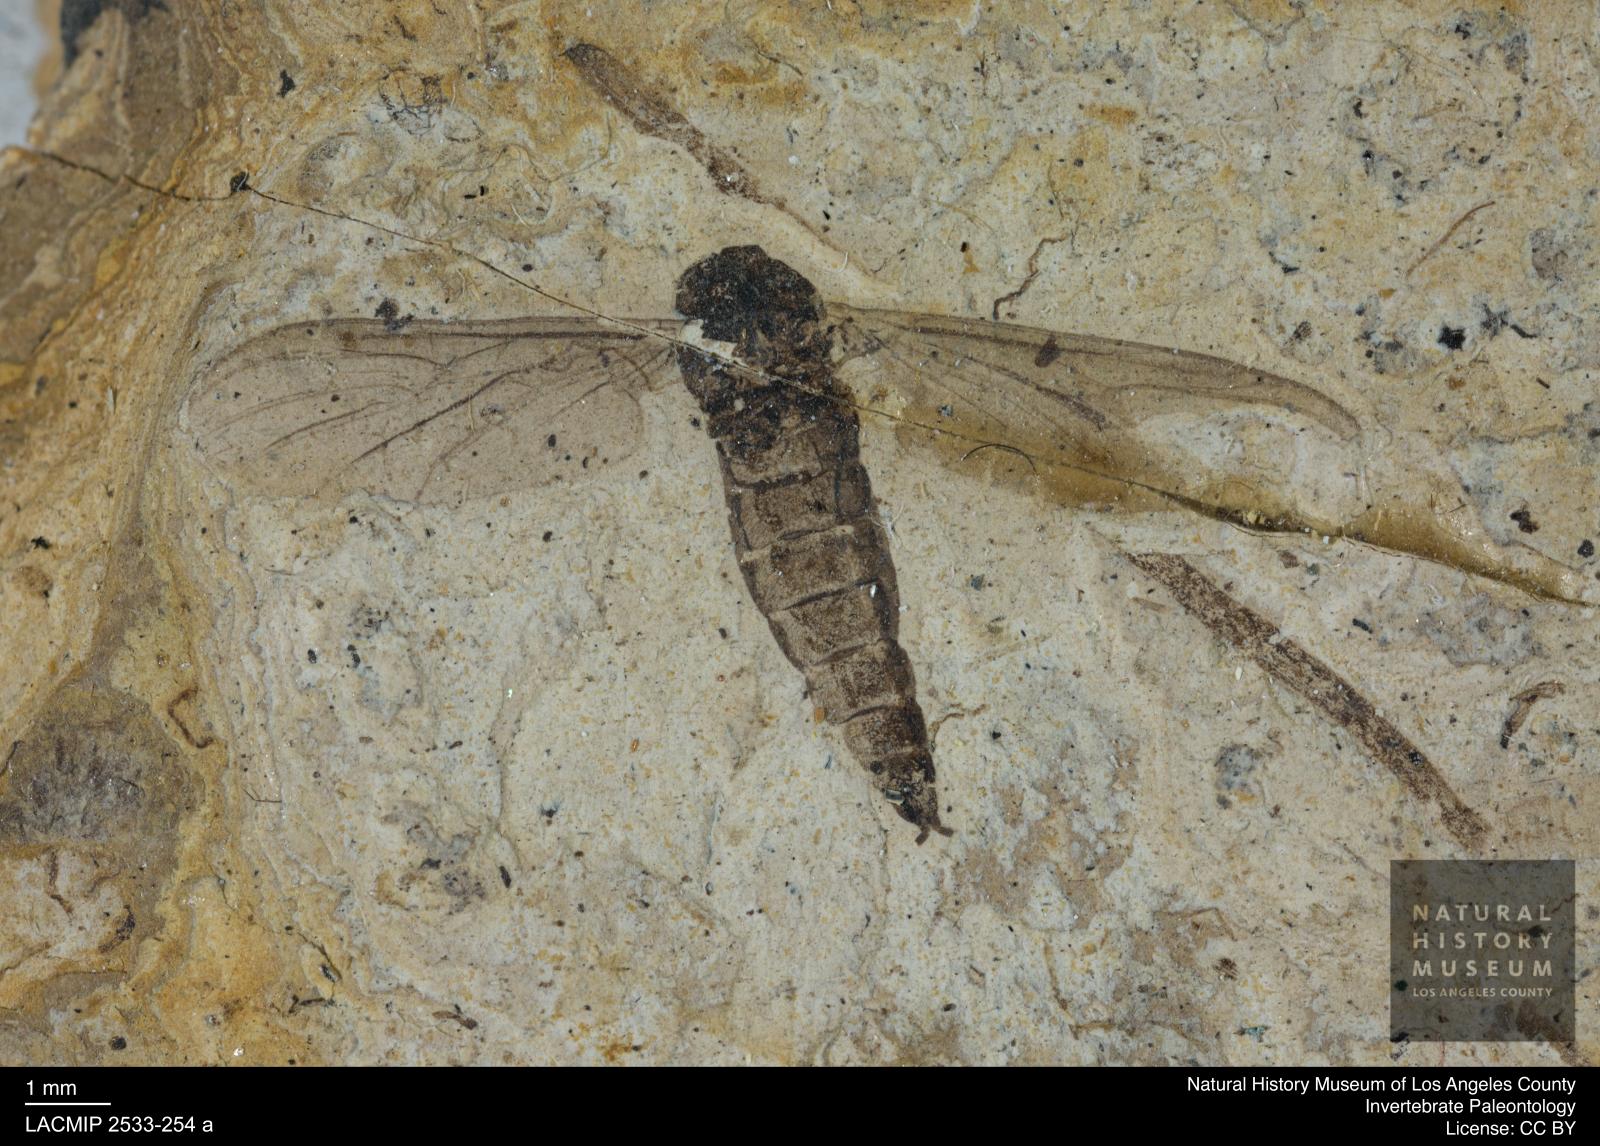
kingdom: Animalia
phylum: Arthropoda
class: Insecta
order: Diptera
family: Hesperinidae
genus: Hesperinus
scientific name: Hesperinus heeri
